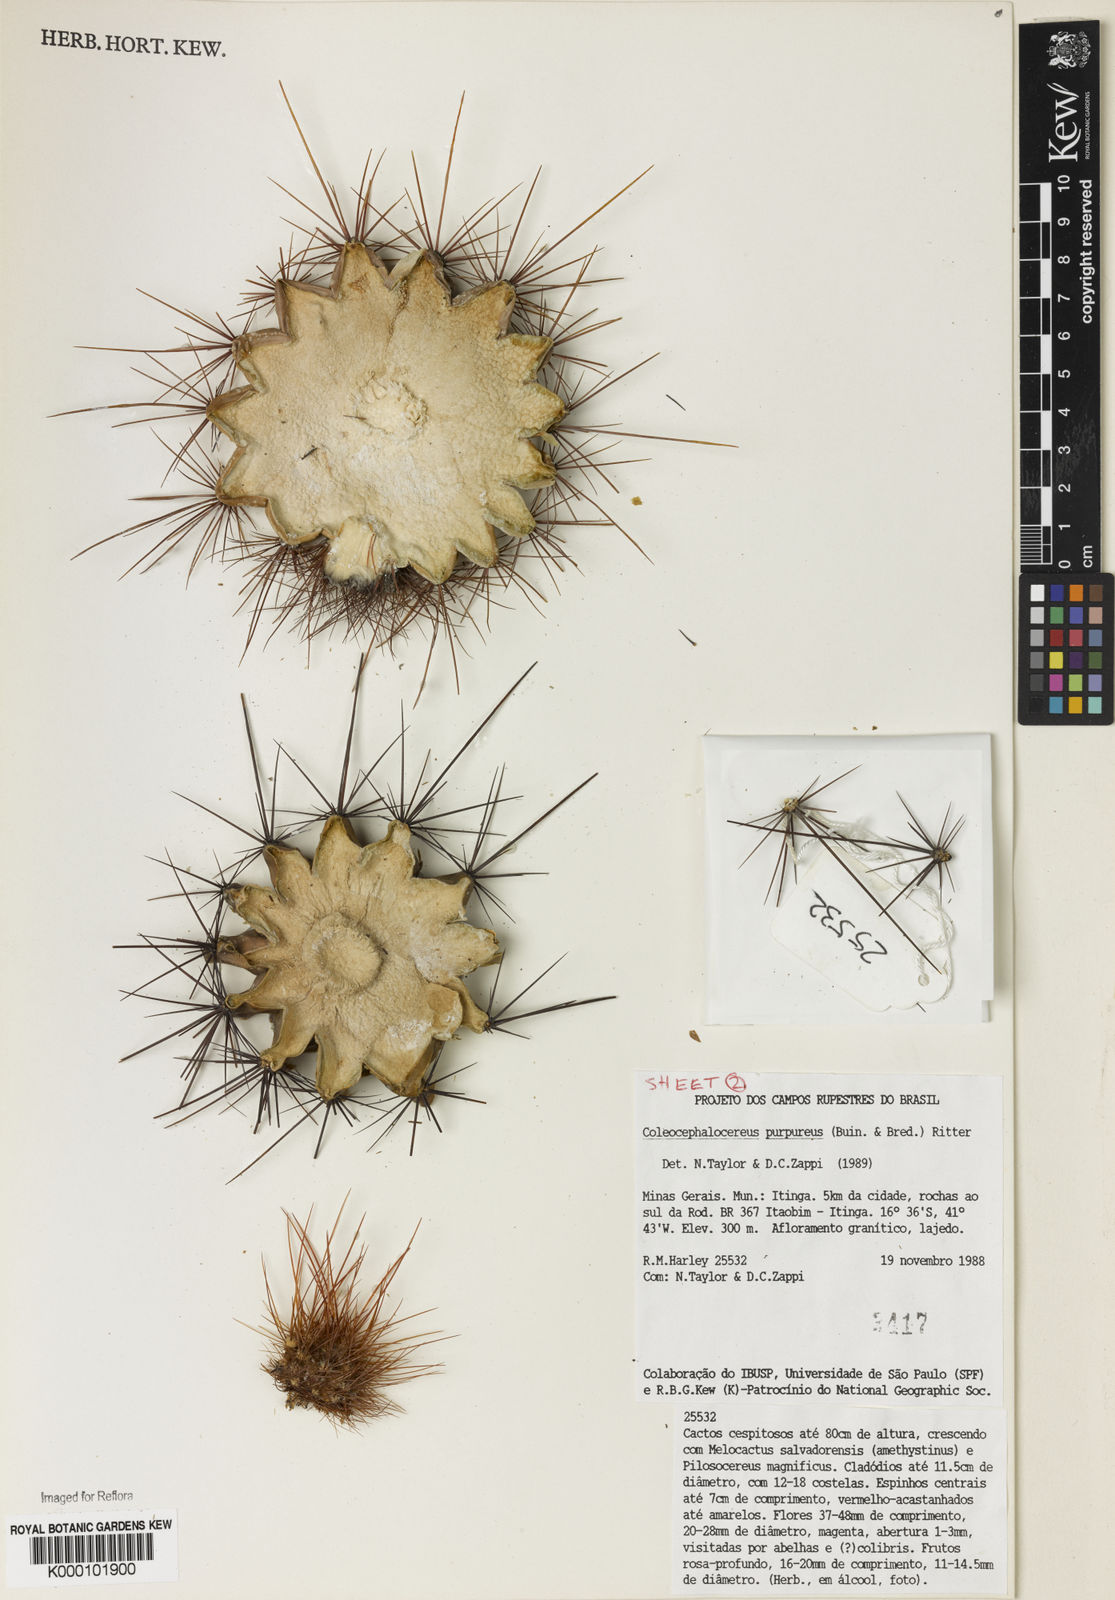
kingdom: Plantae
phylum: Tracheophyta
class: Magnoliopsida
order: Caryophyllales
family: Cactaceae
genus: Coleocephalocereus
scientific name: Coleocephalocereus purpureus
